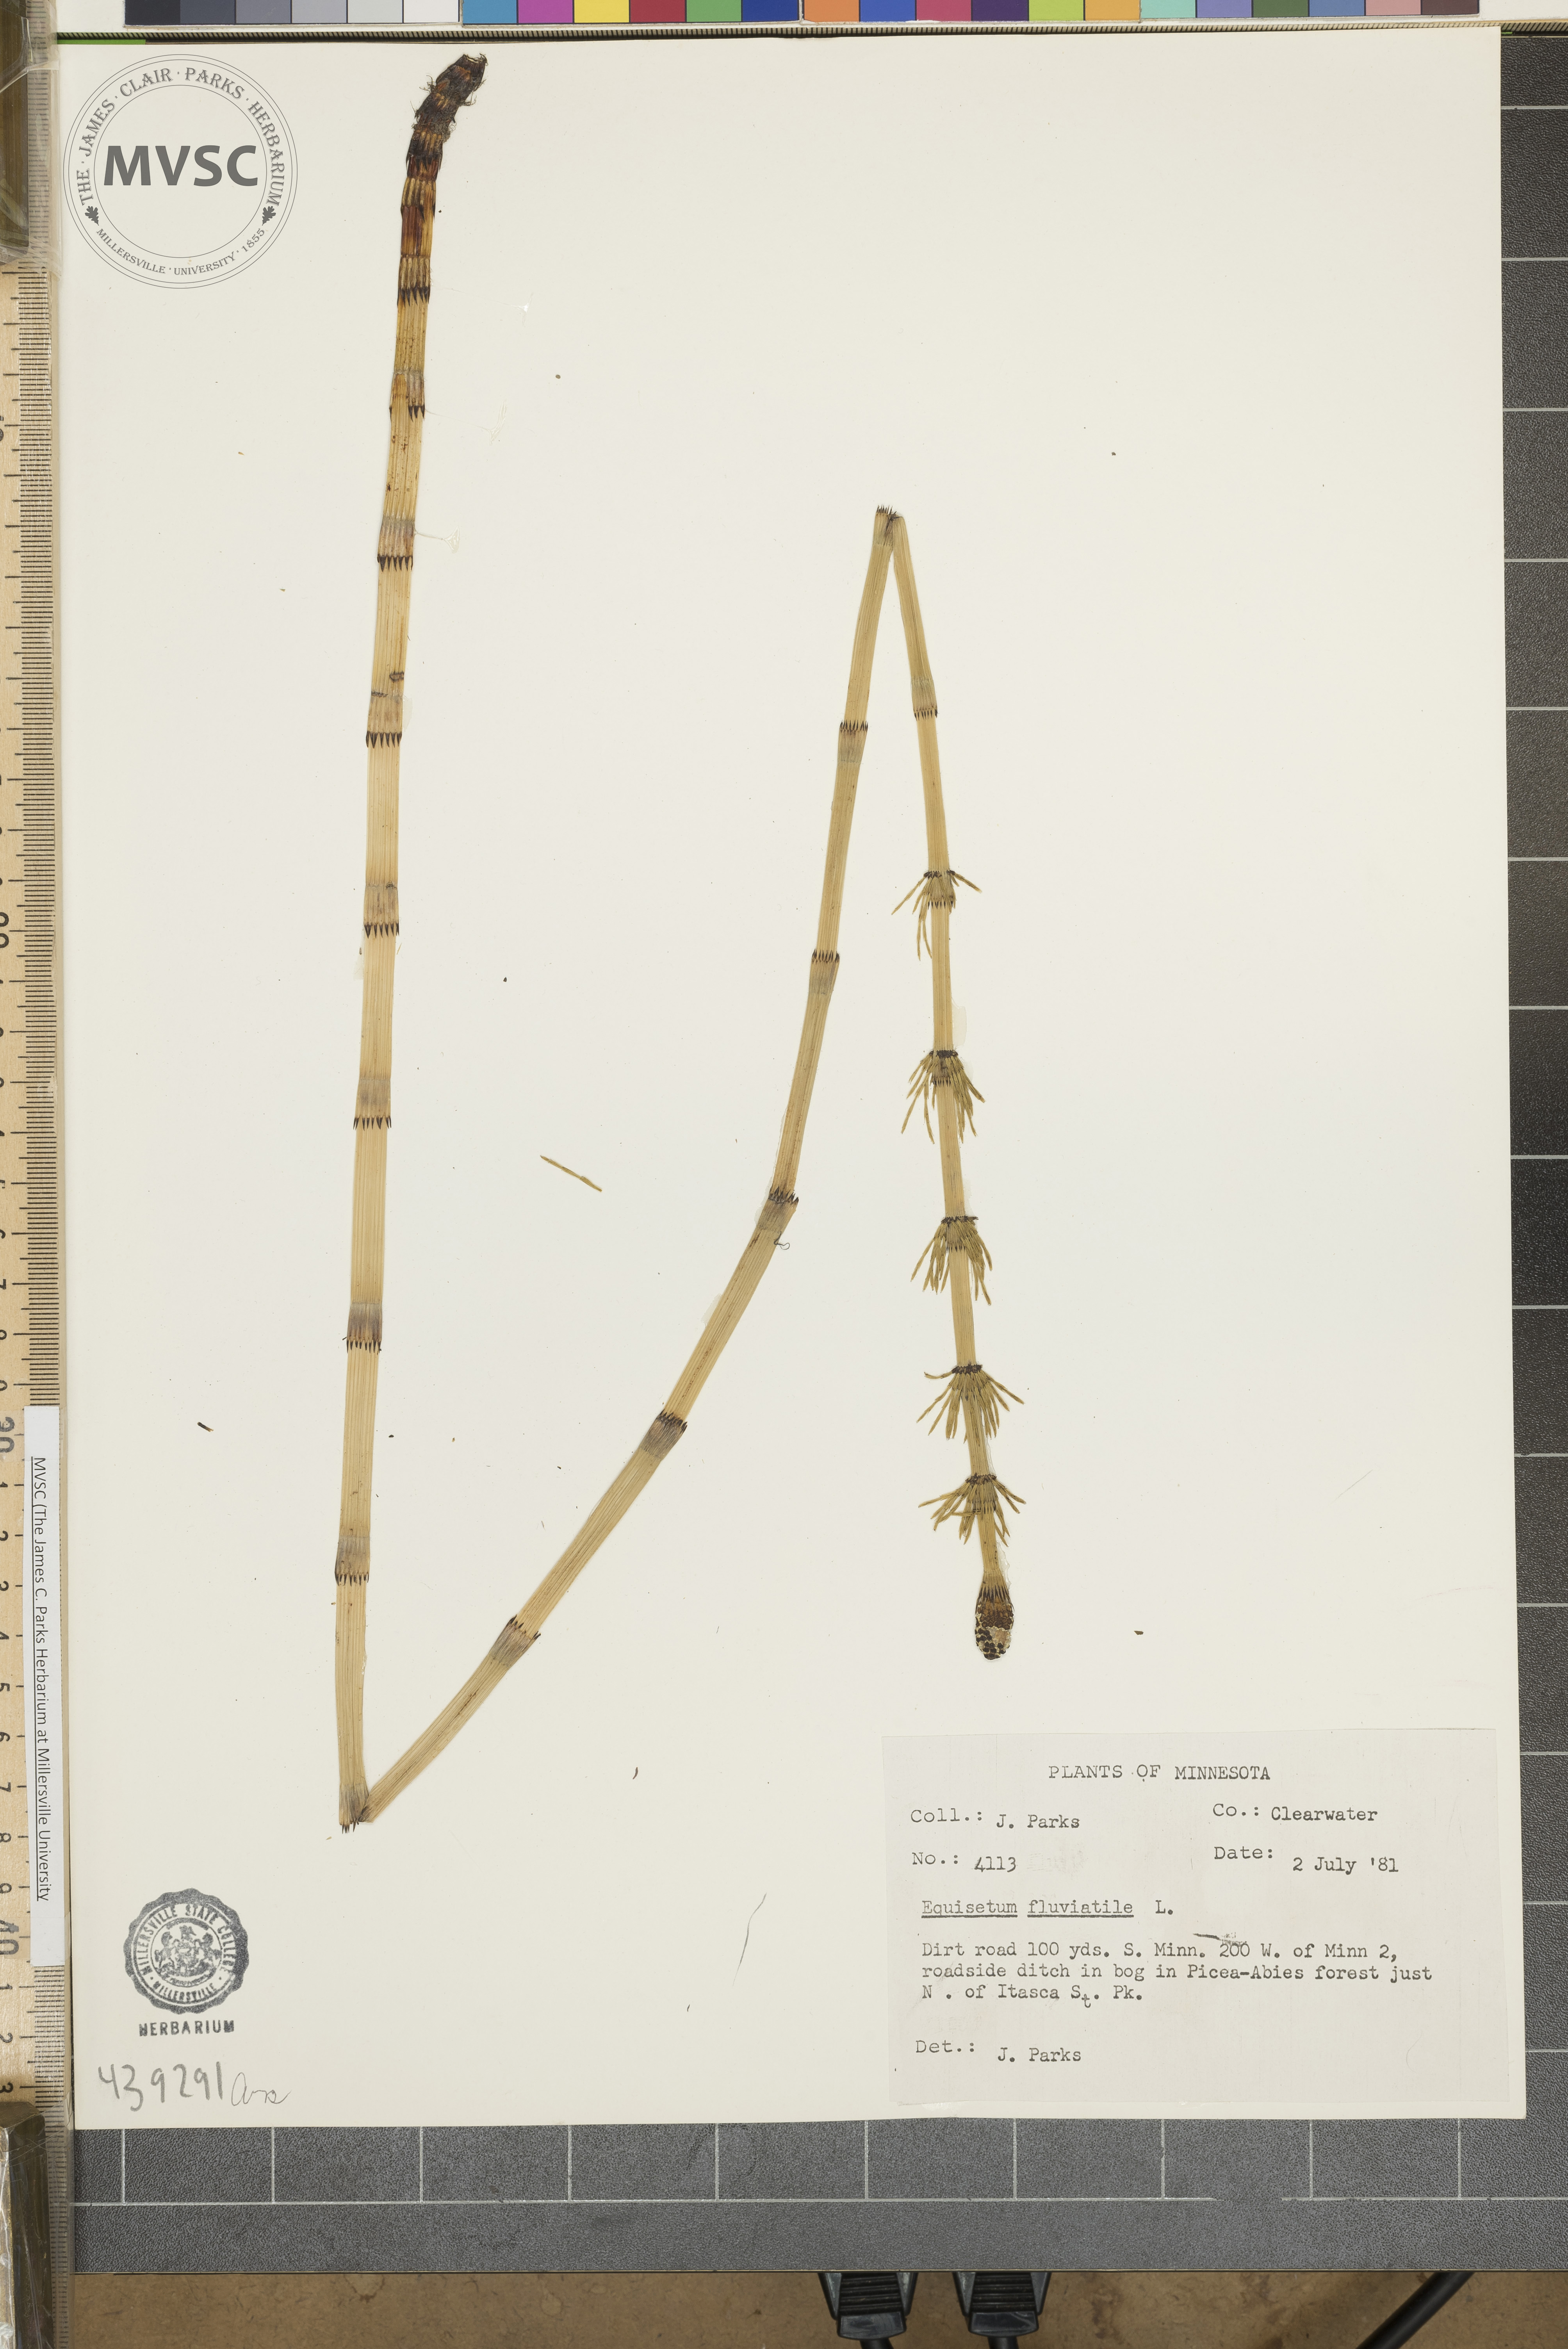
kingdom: Plantae
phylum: Tracheophyta
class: Polypodiopsida
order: Equisetales
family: Equisetaceae
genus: Equisetum
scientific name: Equisetum fluviatile
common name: Water horsetail
